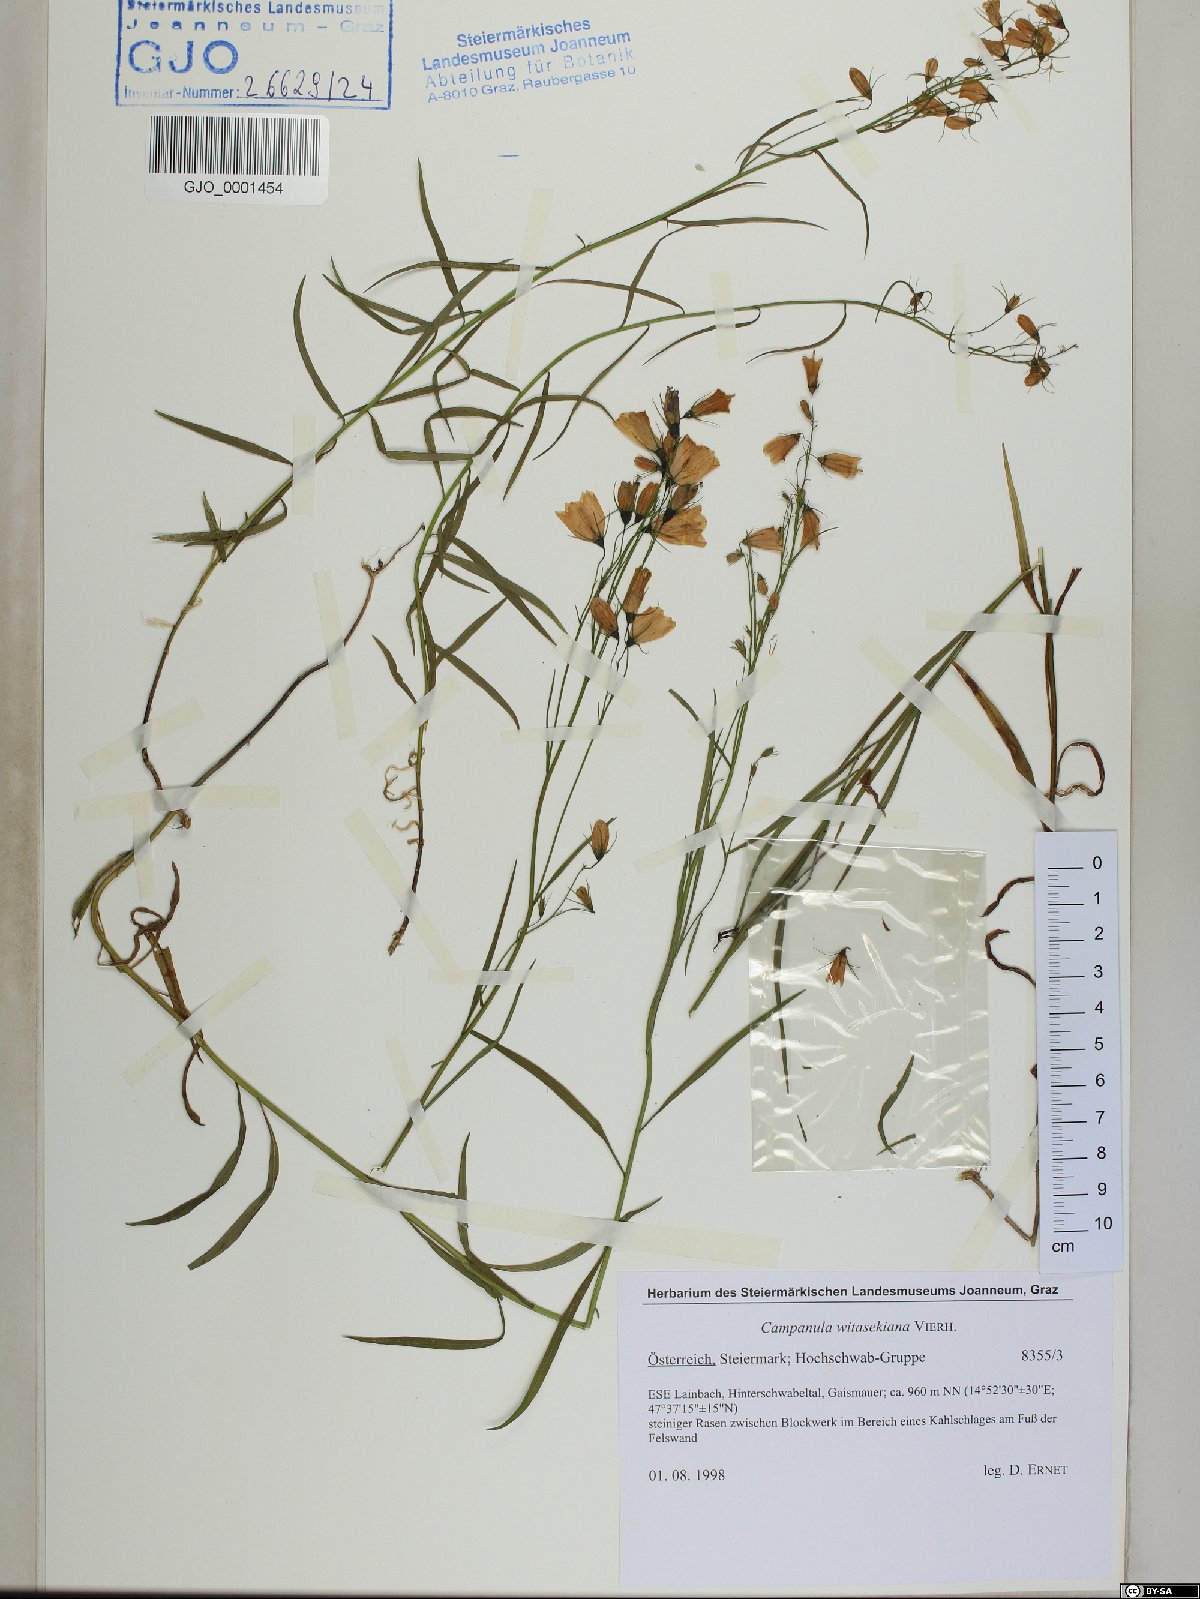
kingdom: Plantae
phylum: Tracheophyta
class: Magnoliopsida
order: Asterales
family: Campanulaceae
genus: Campanula
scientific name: Campanula witasekiana
